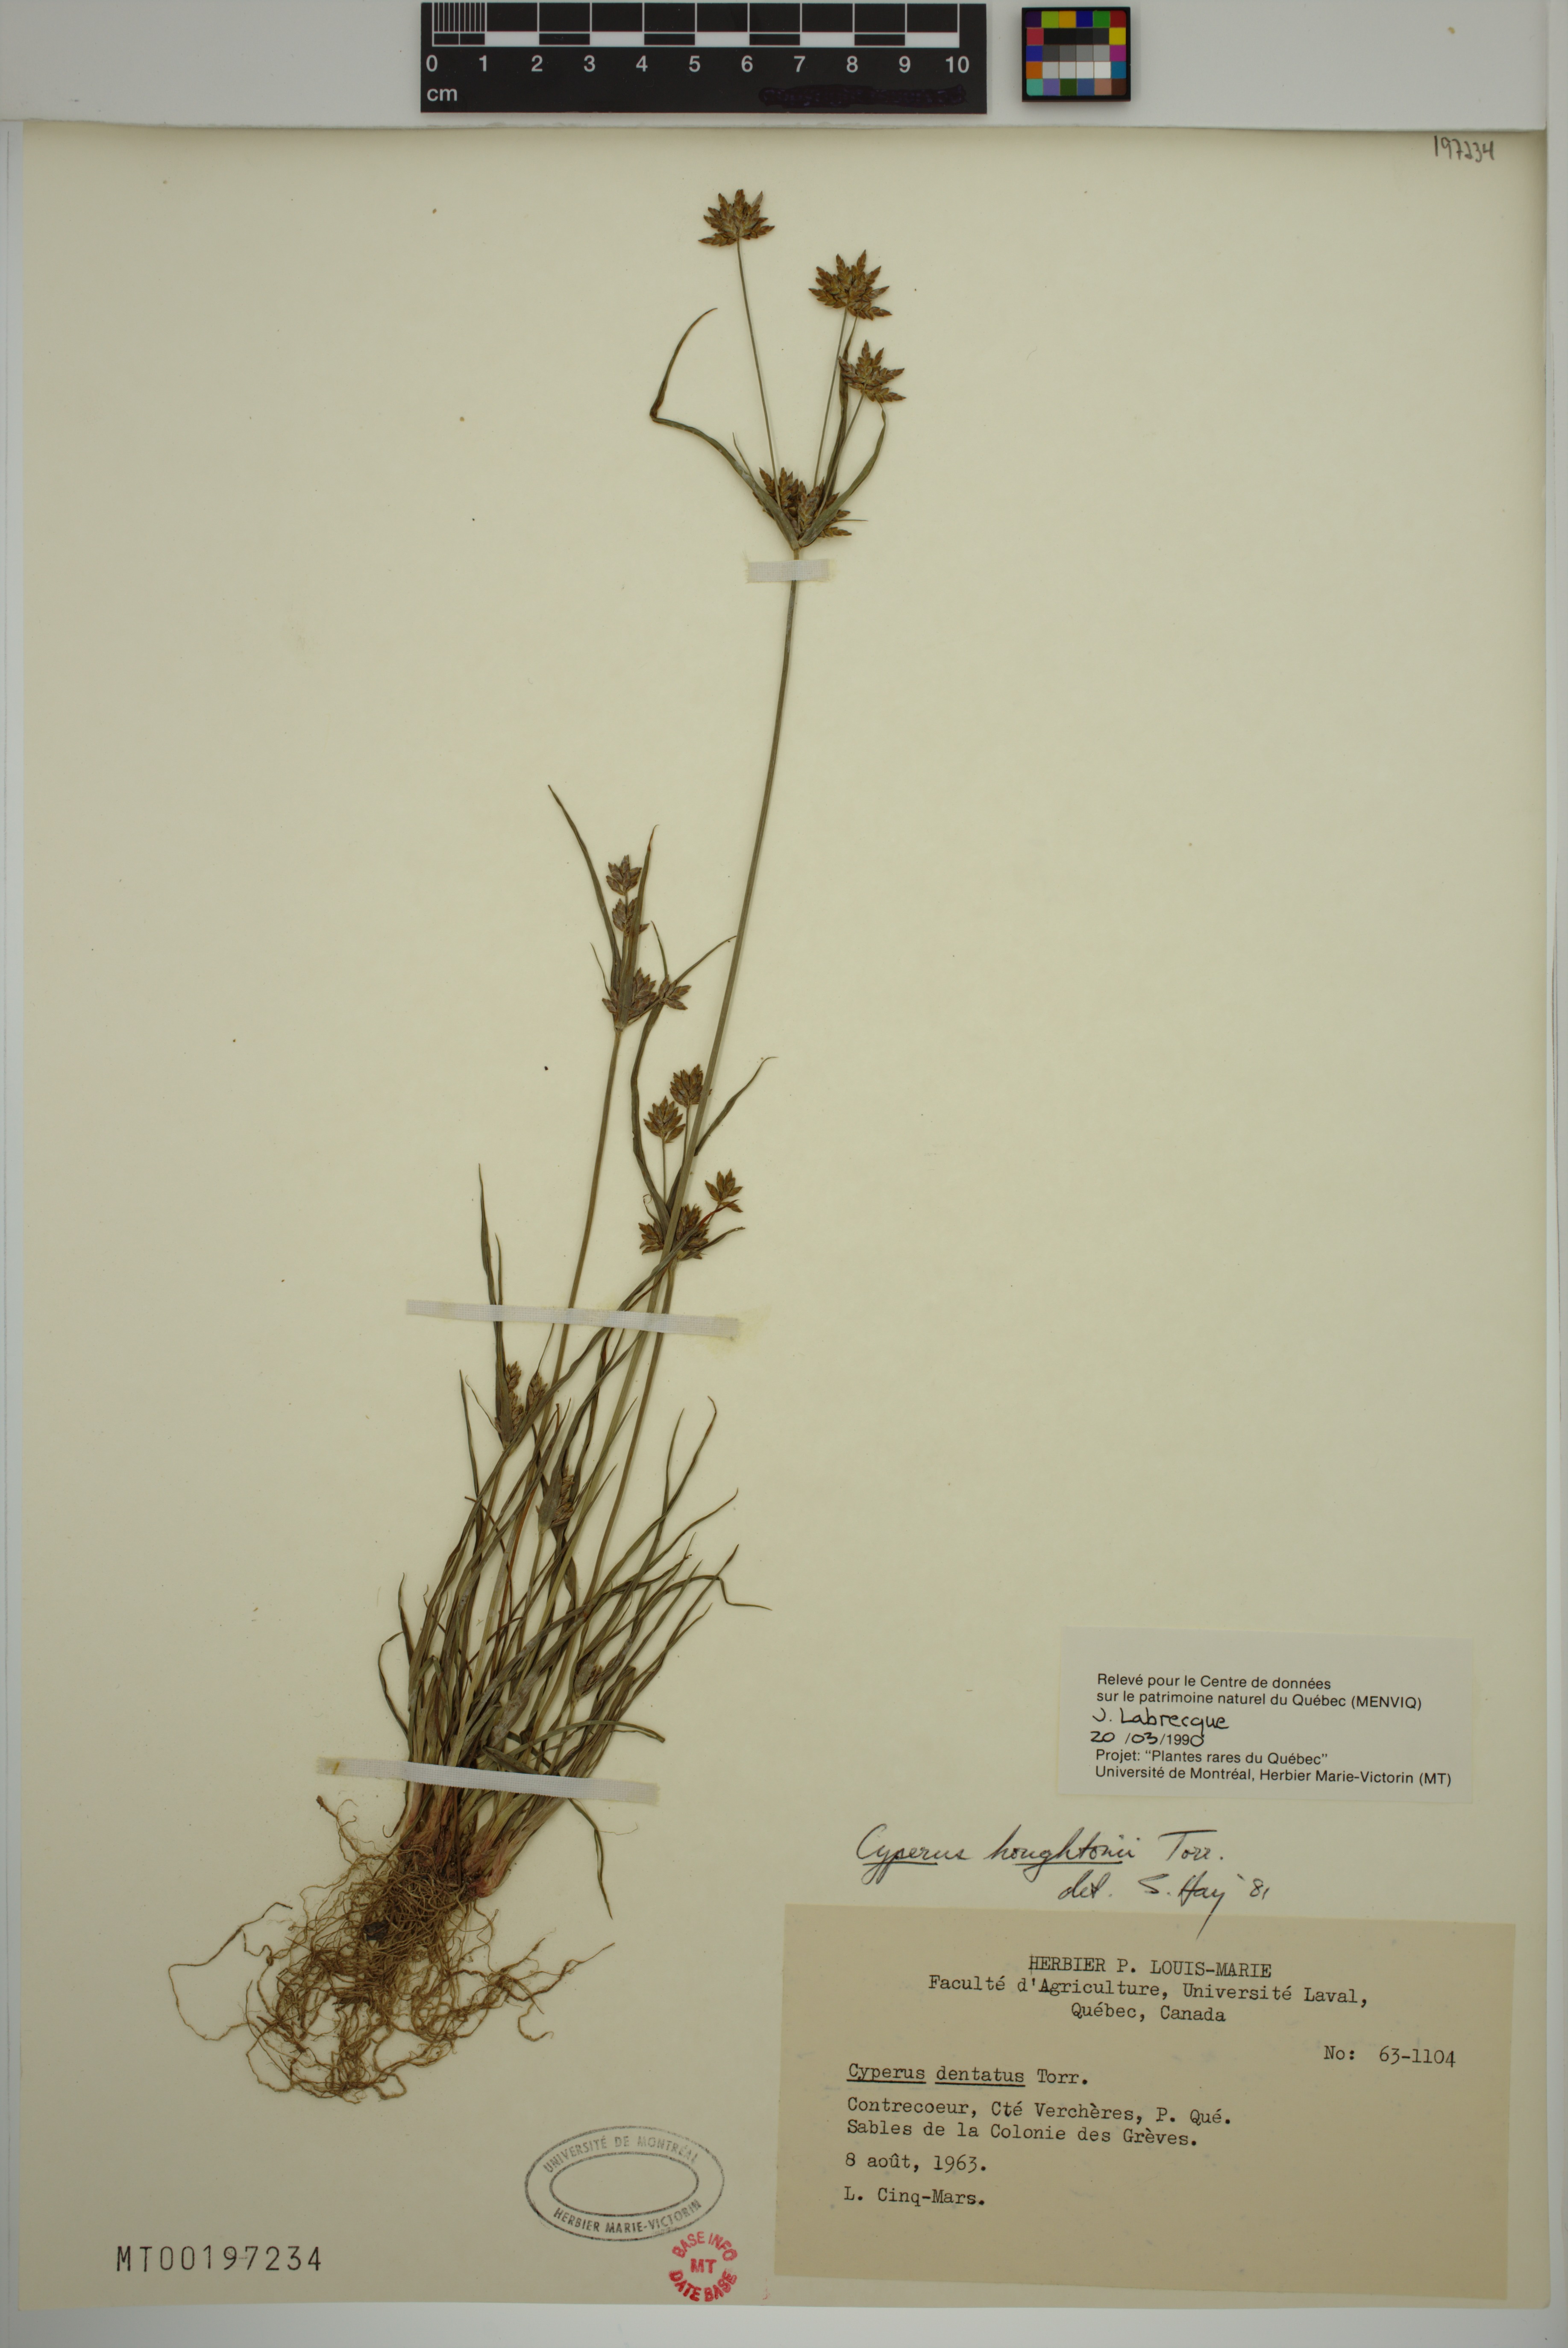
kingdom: Plantae
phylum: Tracheophyta
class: Liliopsida
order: Poales
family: Cyperaceae
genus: Cyperus
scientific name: Cyperus houghtonii
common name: Houghton's cyperus
